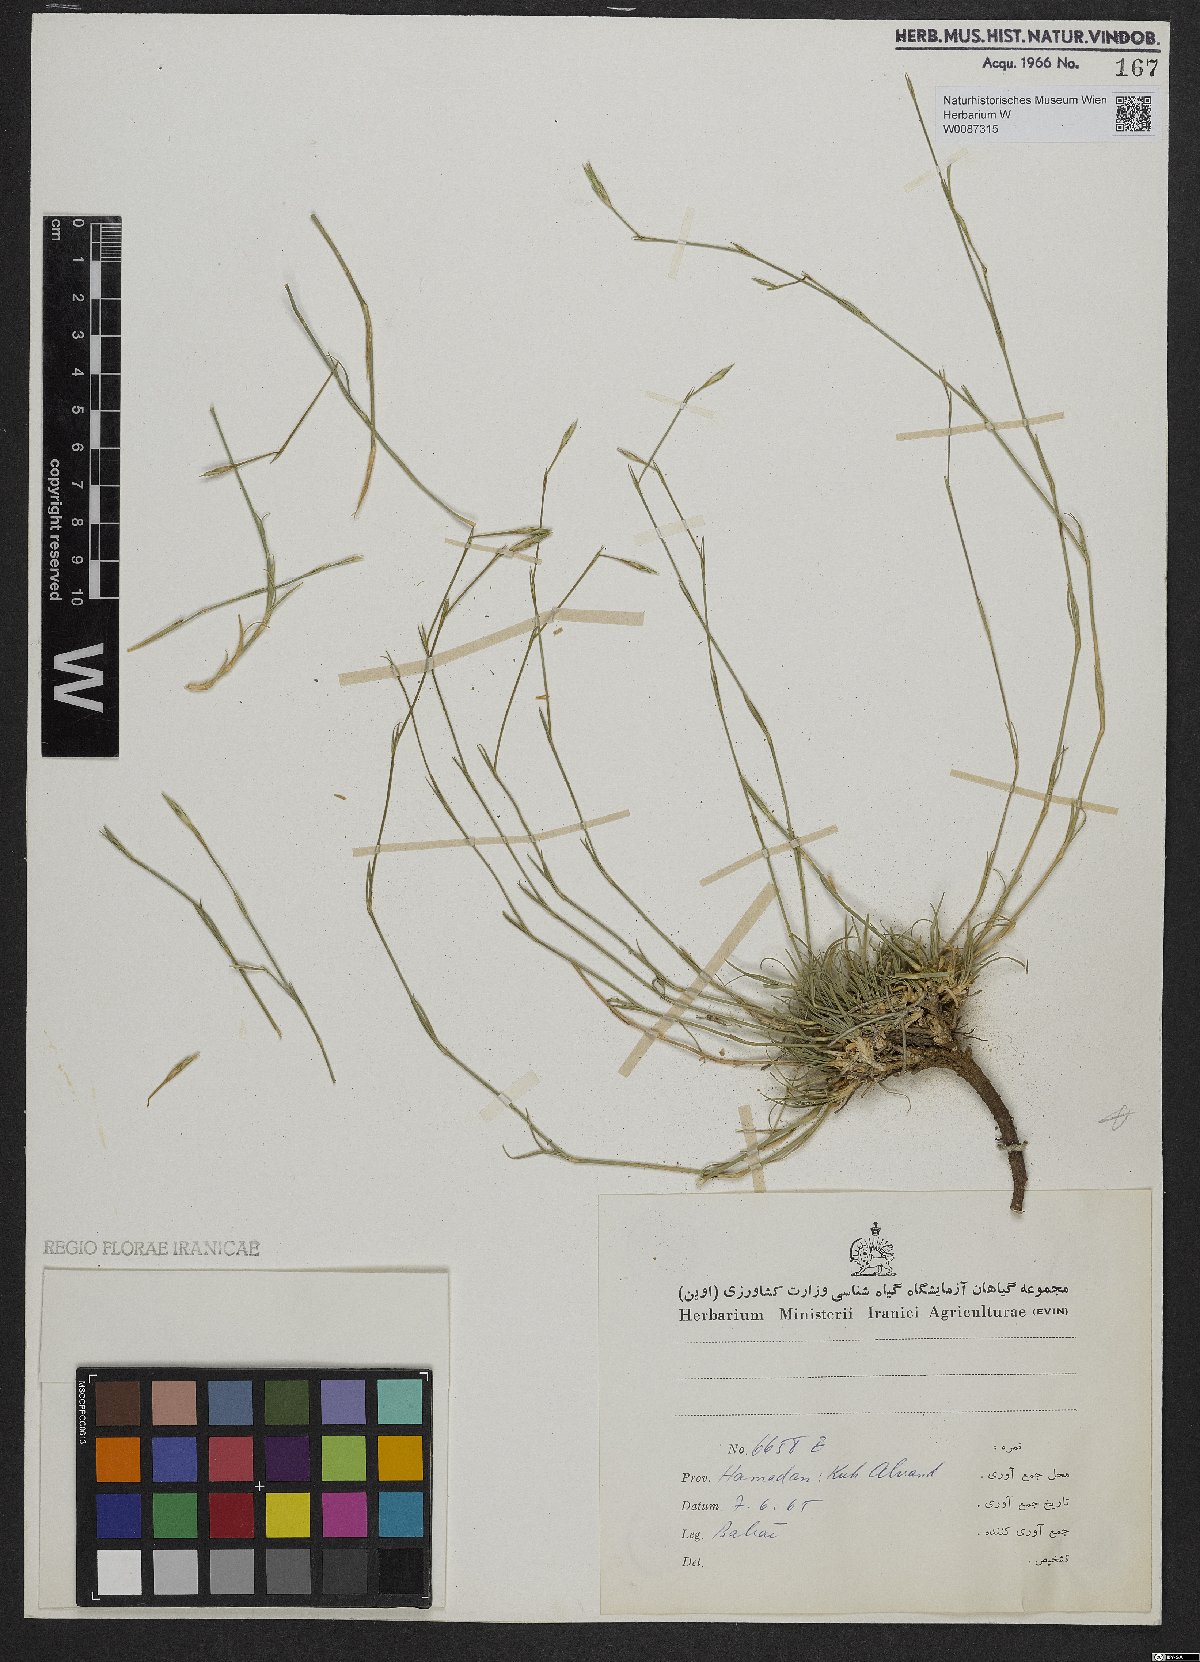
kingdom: Plantae
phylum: Tracheophyta
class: Magnoliopsida
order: Caryophyllales
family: Caryophyllaceae
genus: Dianthus
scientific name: Dianthus
